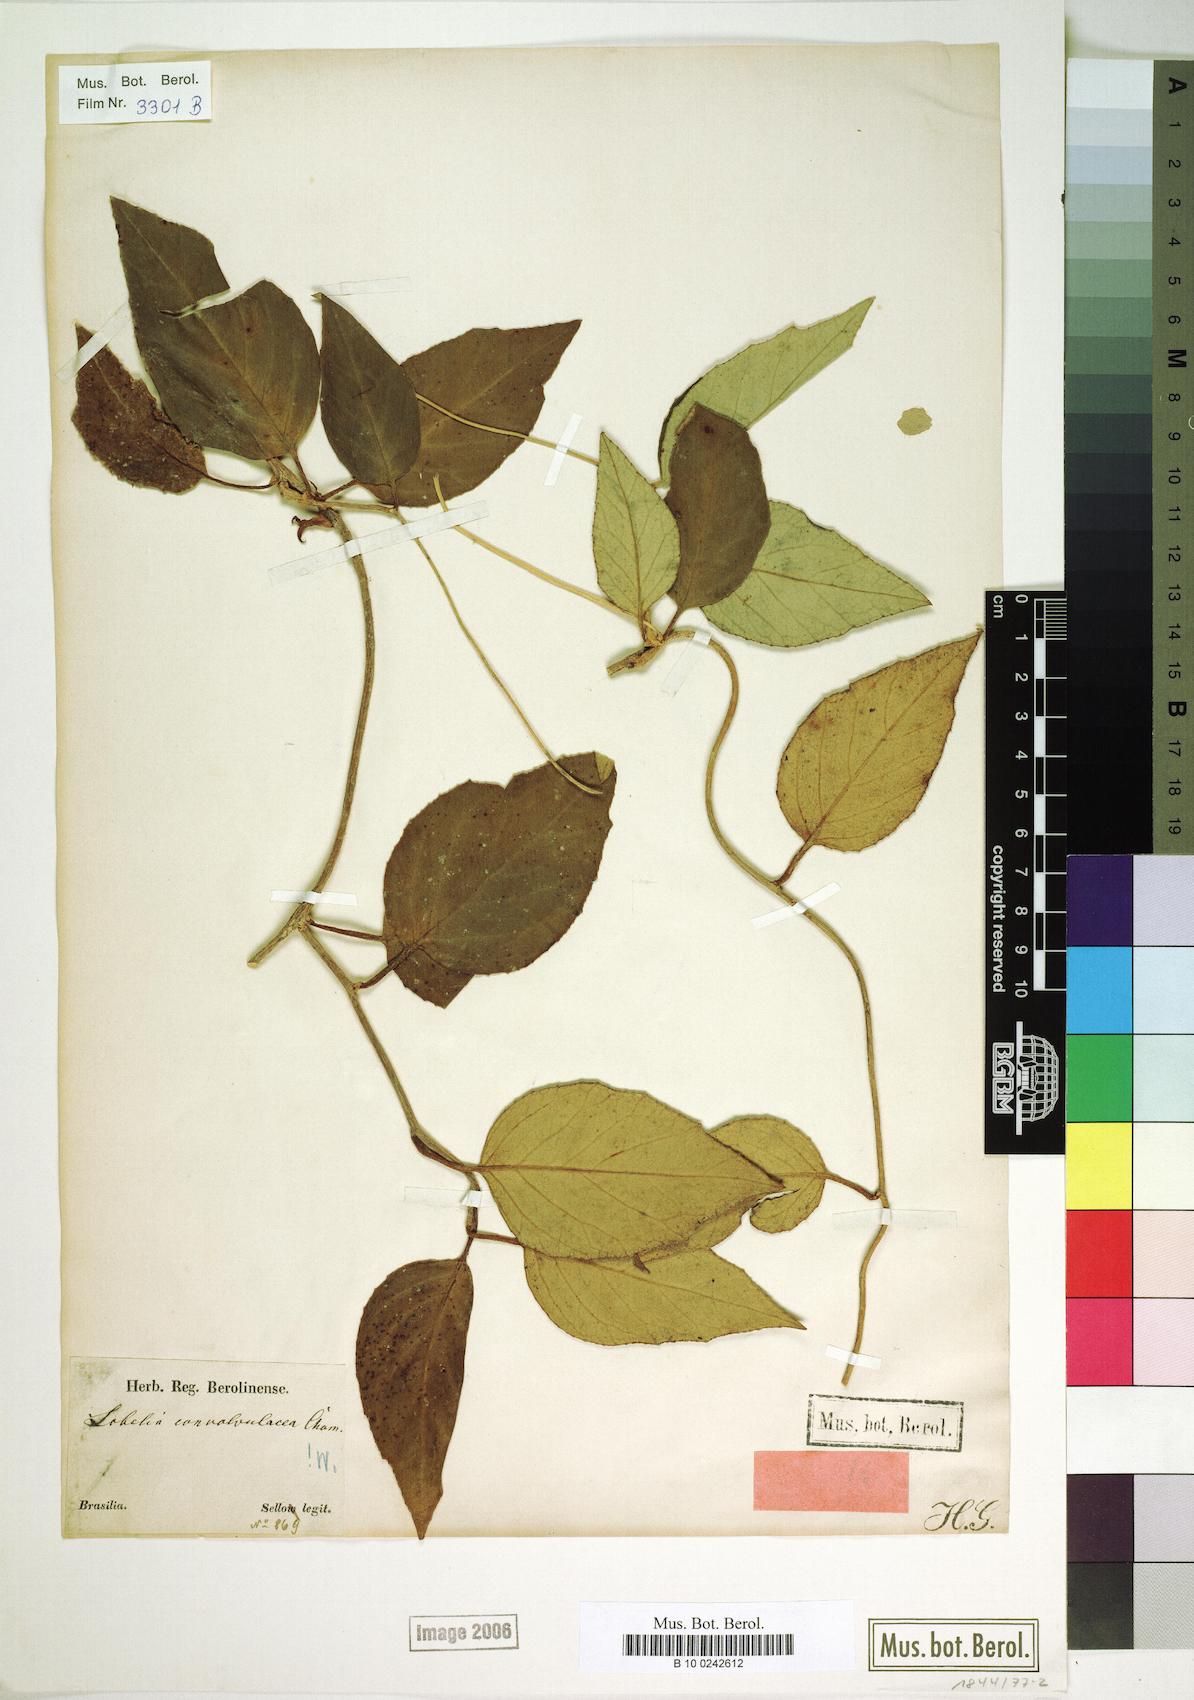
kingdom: Plantae
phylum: Tracheophyta
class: Magnoliopsida
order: Asterales
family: Campanulaceae
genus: Siphocampylus
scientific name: Siphocampylus convolvulaceus
